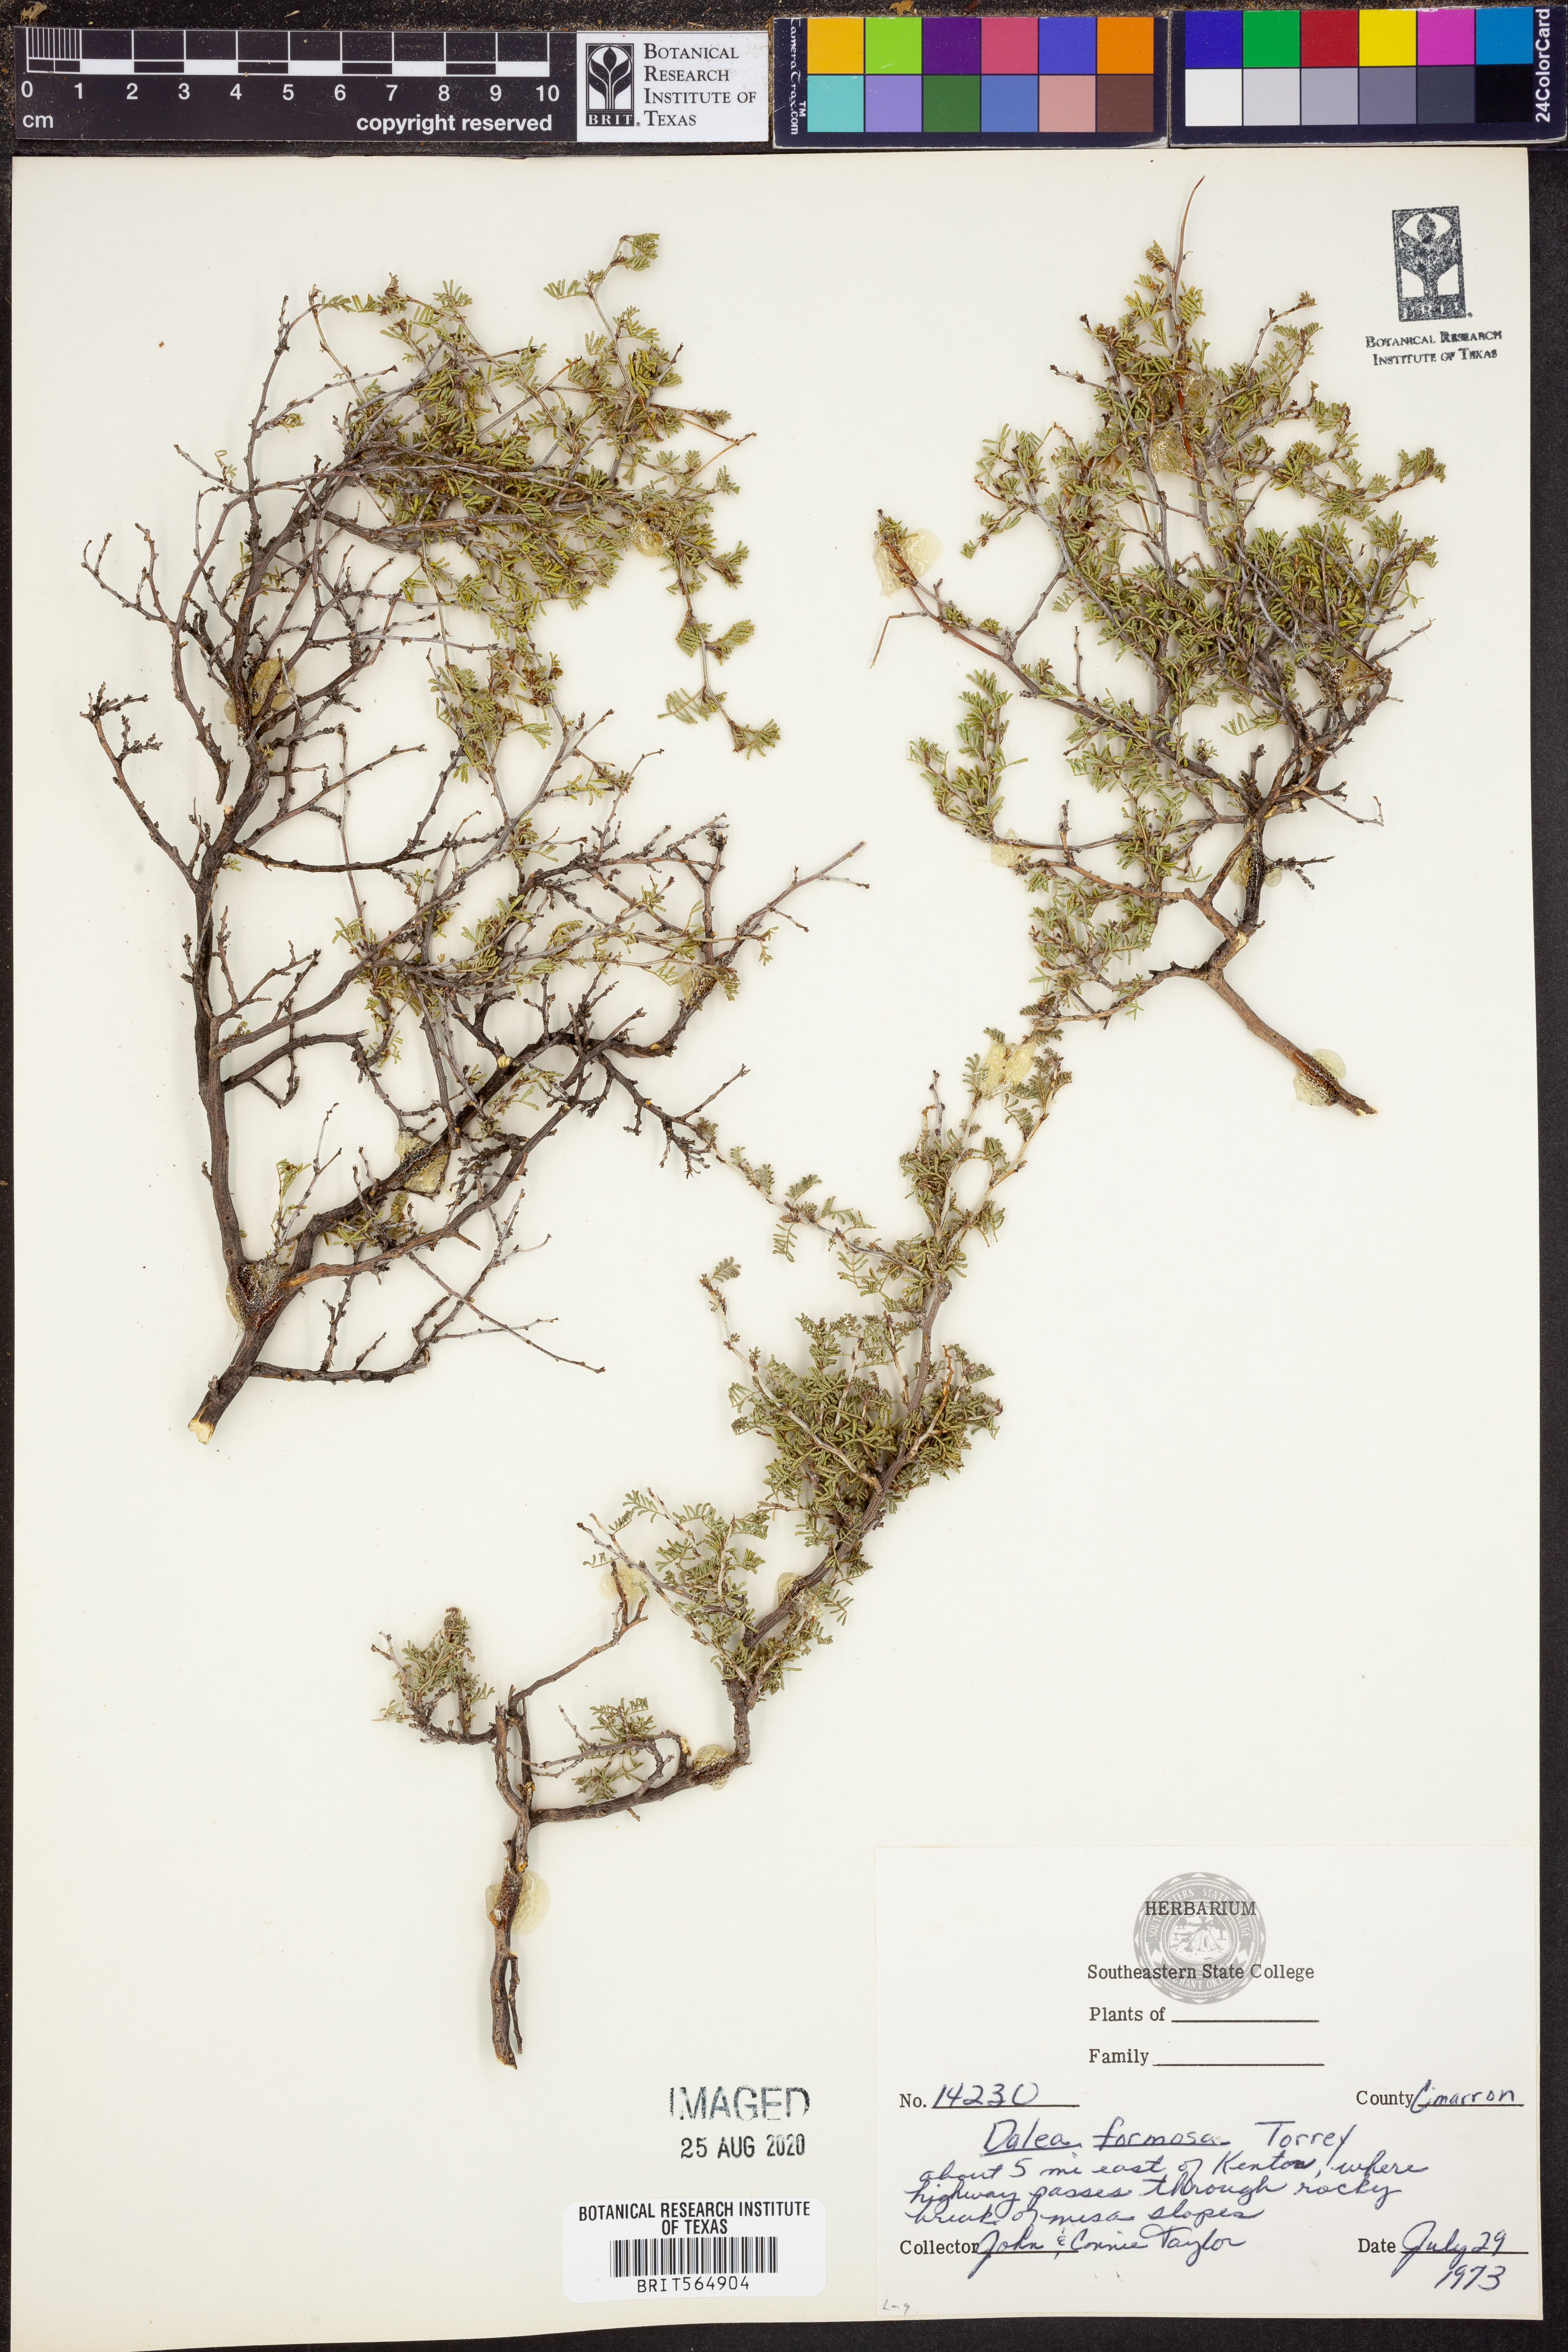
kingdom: Plantae
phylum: Tracheophyta
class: Magnoliopsida
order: Fabales
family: Fabaceae
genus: Dalea
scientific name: Dalea formosa
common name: Feather-plume dalea
